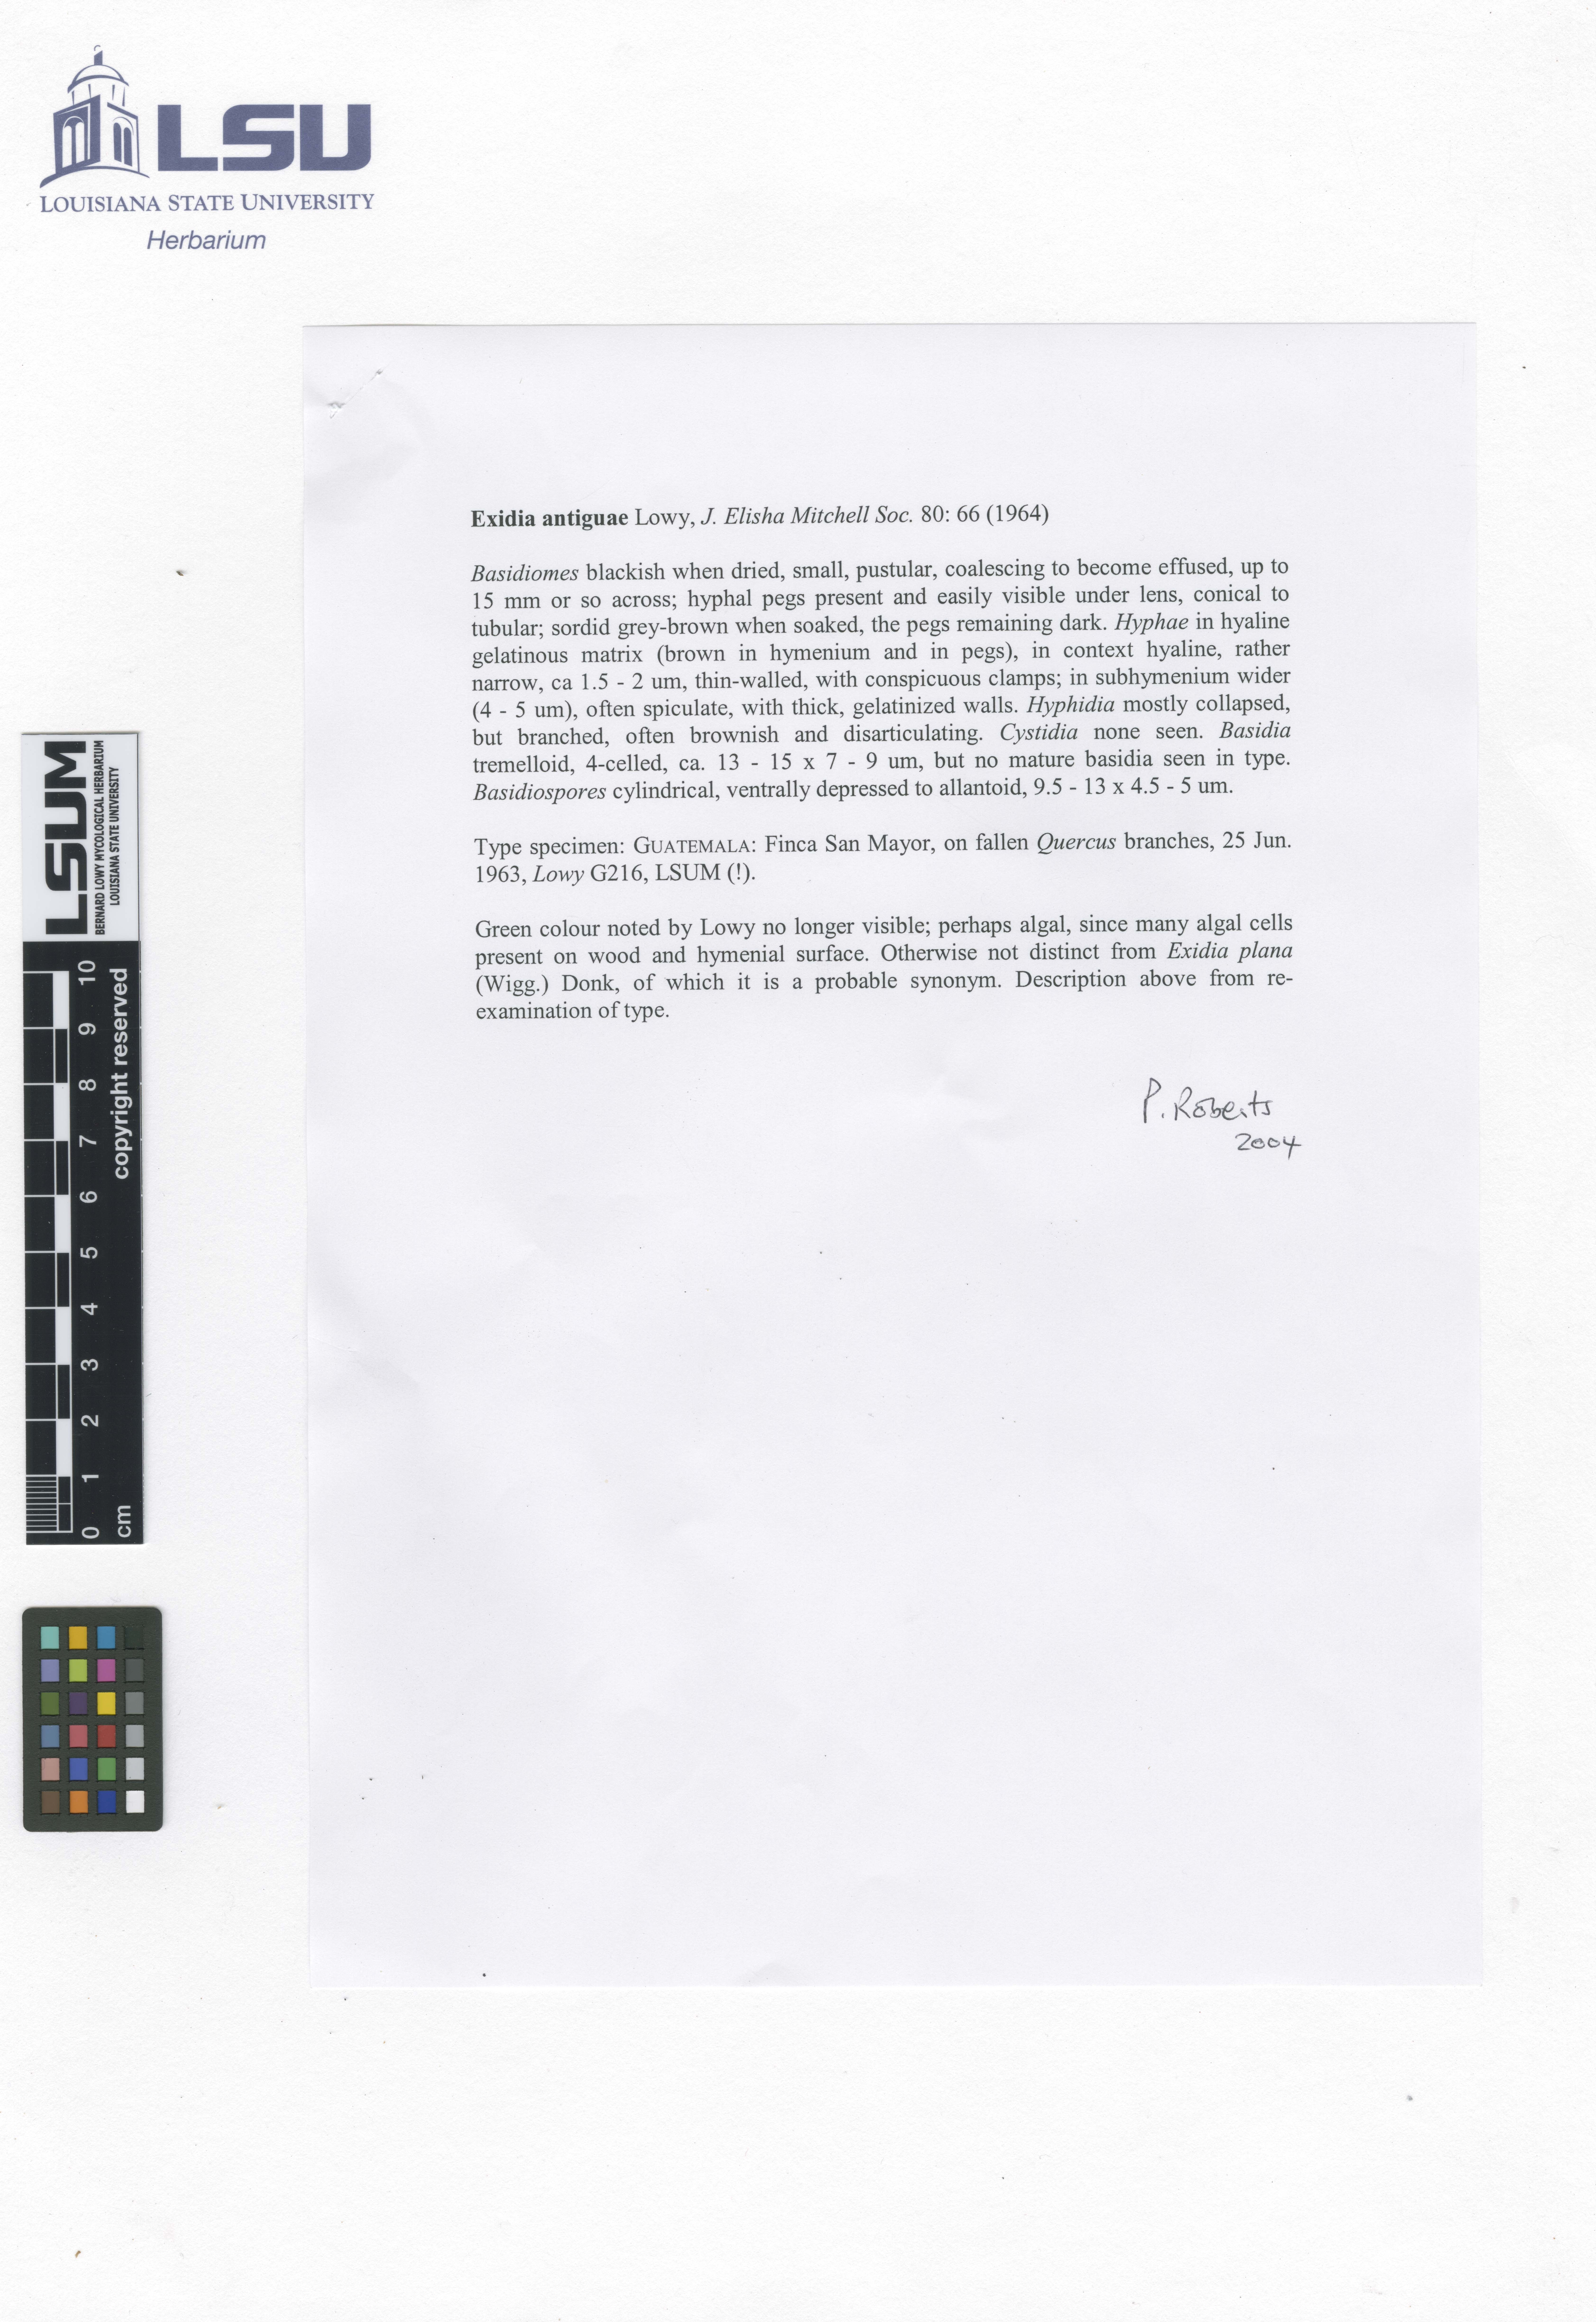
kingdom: Fungi
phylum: Basidiomycota
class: Agaricomycetes
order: Auriculariales
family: Auriculariaceae
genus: Exidia
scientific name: Exidia antiguae
